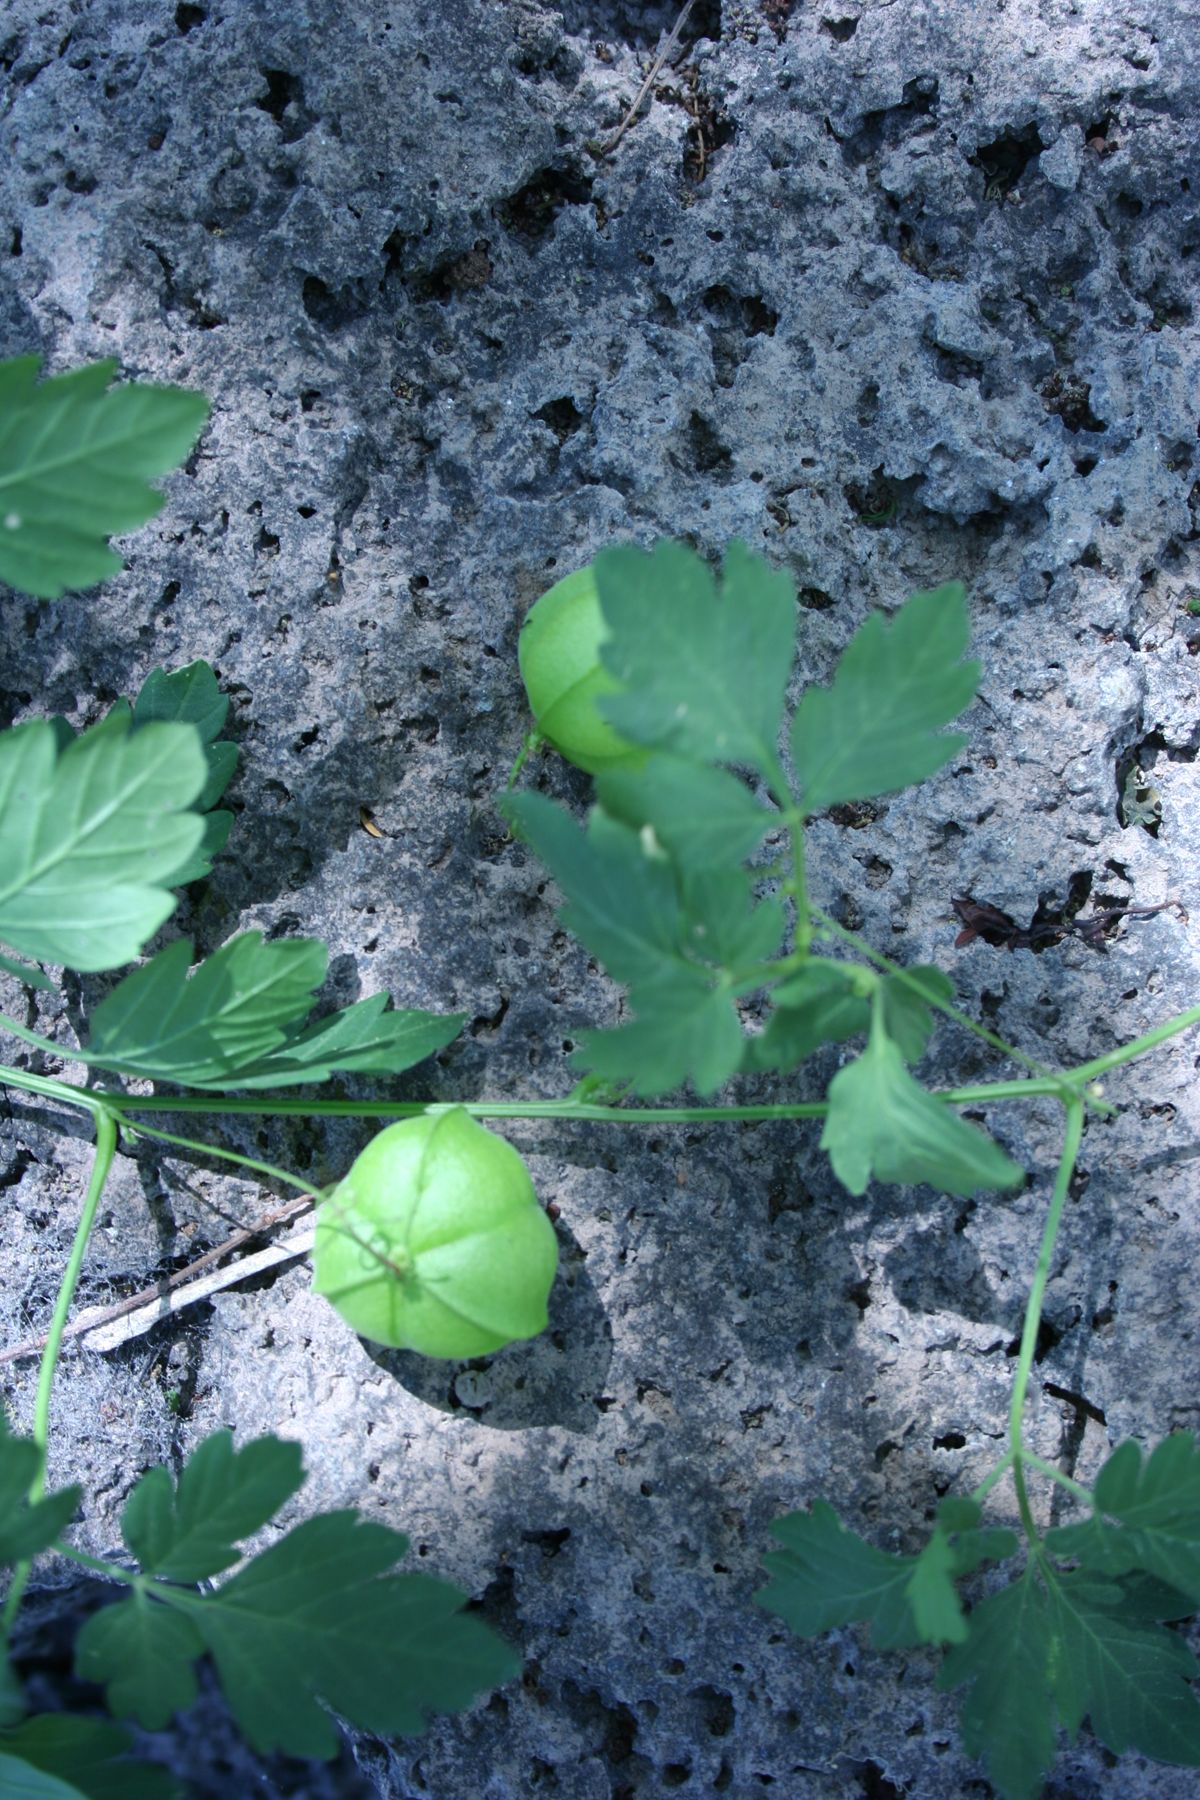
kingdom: Plantae
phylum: Tracheophyta
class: Magnoliopsida
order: Sapindales
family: Sapindaceae
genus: Cardiospermum
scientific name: Cardiospermum halicacabum
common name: Balloon vine
